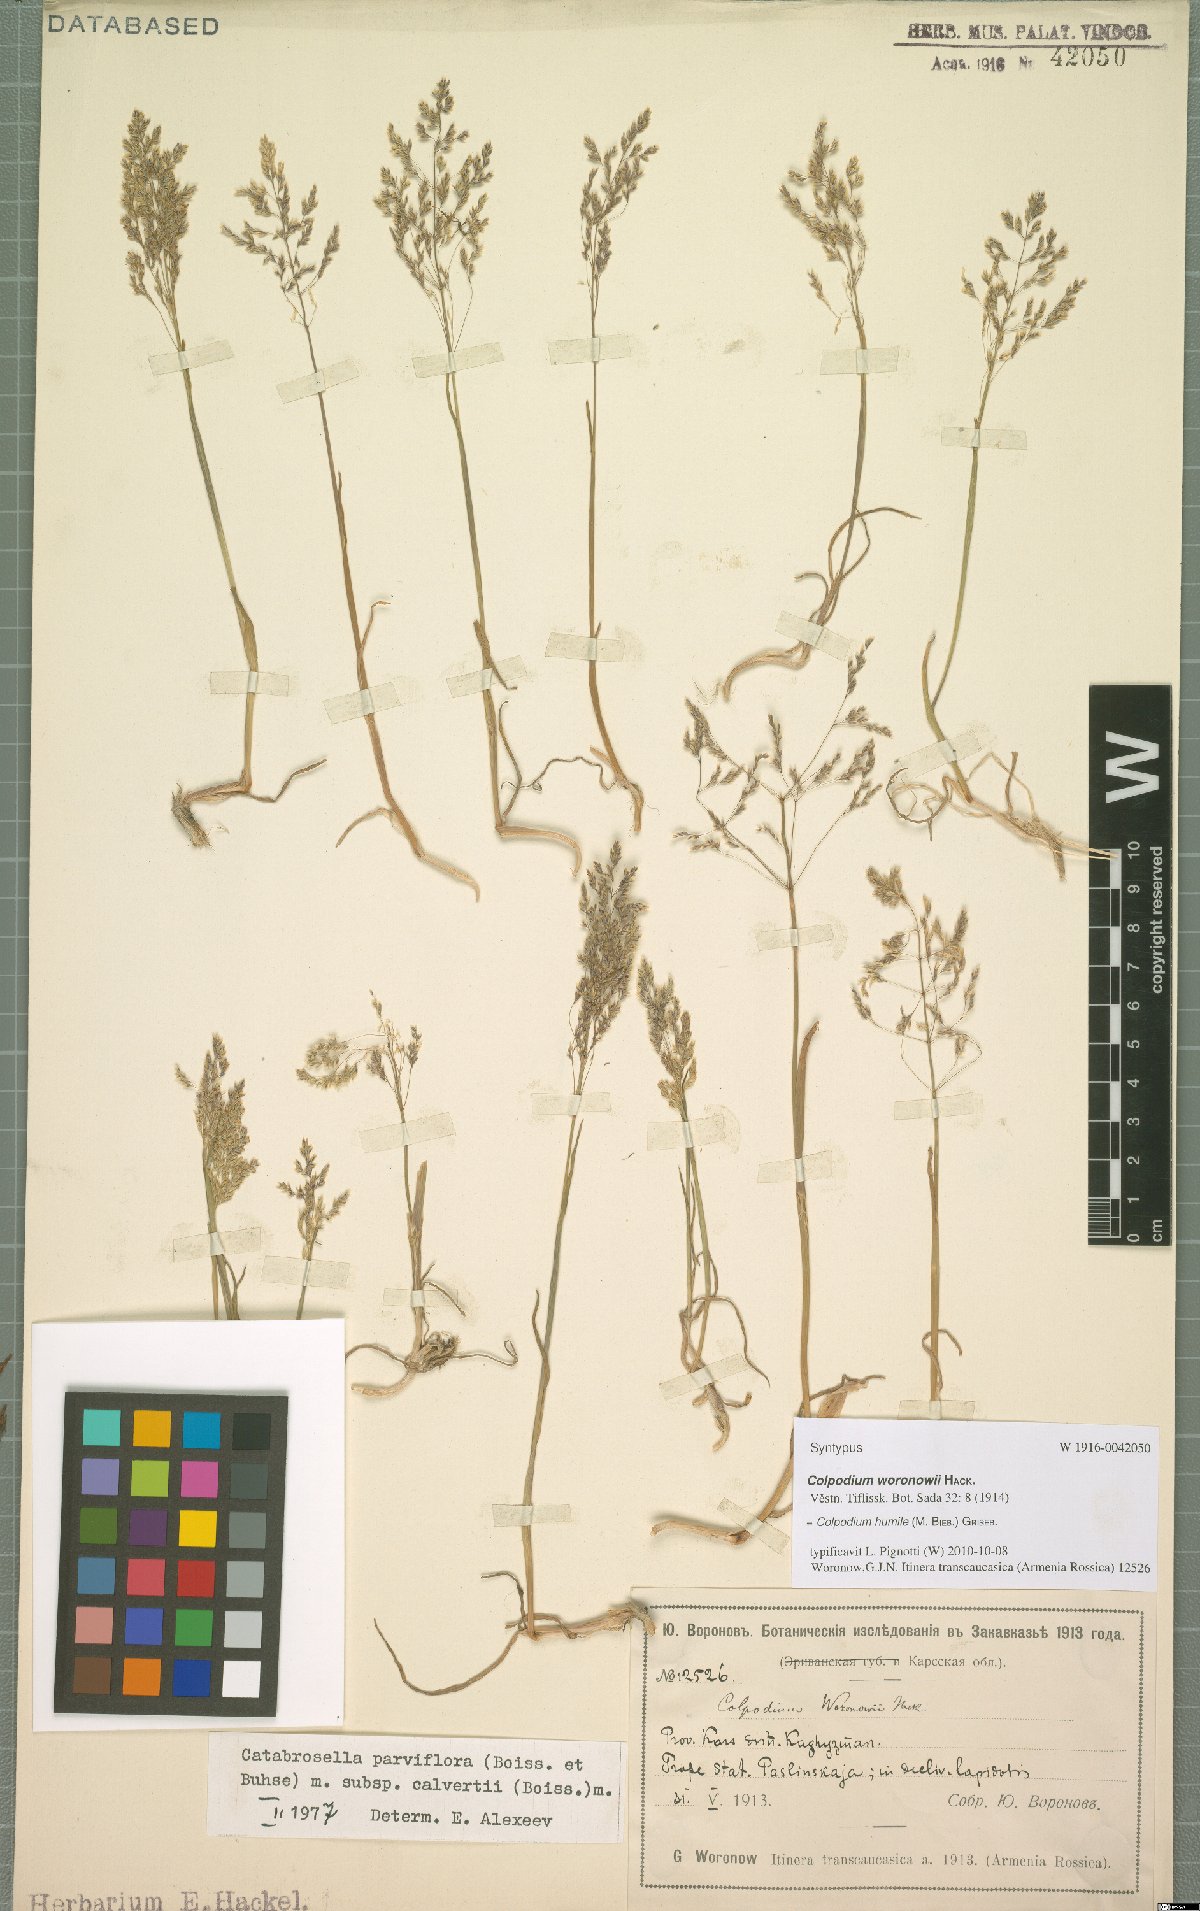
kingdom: Plantae
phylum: Tracheophyta
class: Liliopsida
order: Poales
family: Poaceae
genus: Catabrosella
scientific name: Catabrosella humilis
